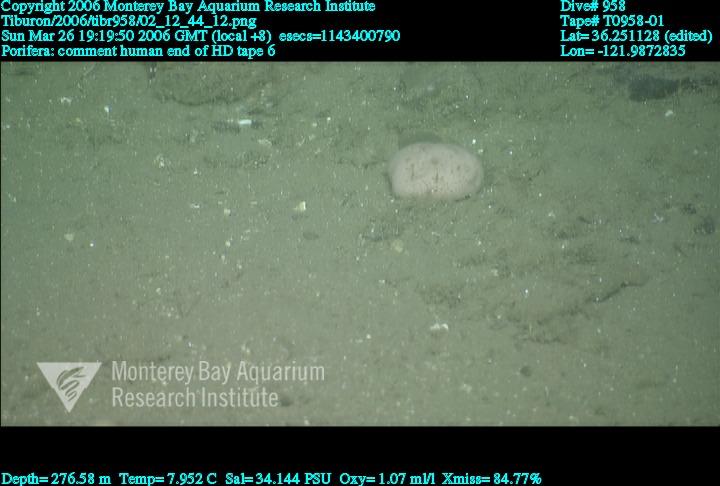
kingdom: Animalia
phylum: Porifera
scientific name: Porifera
